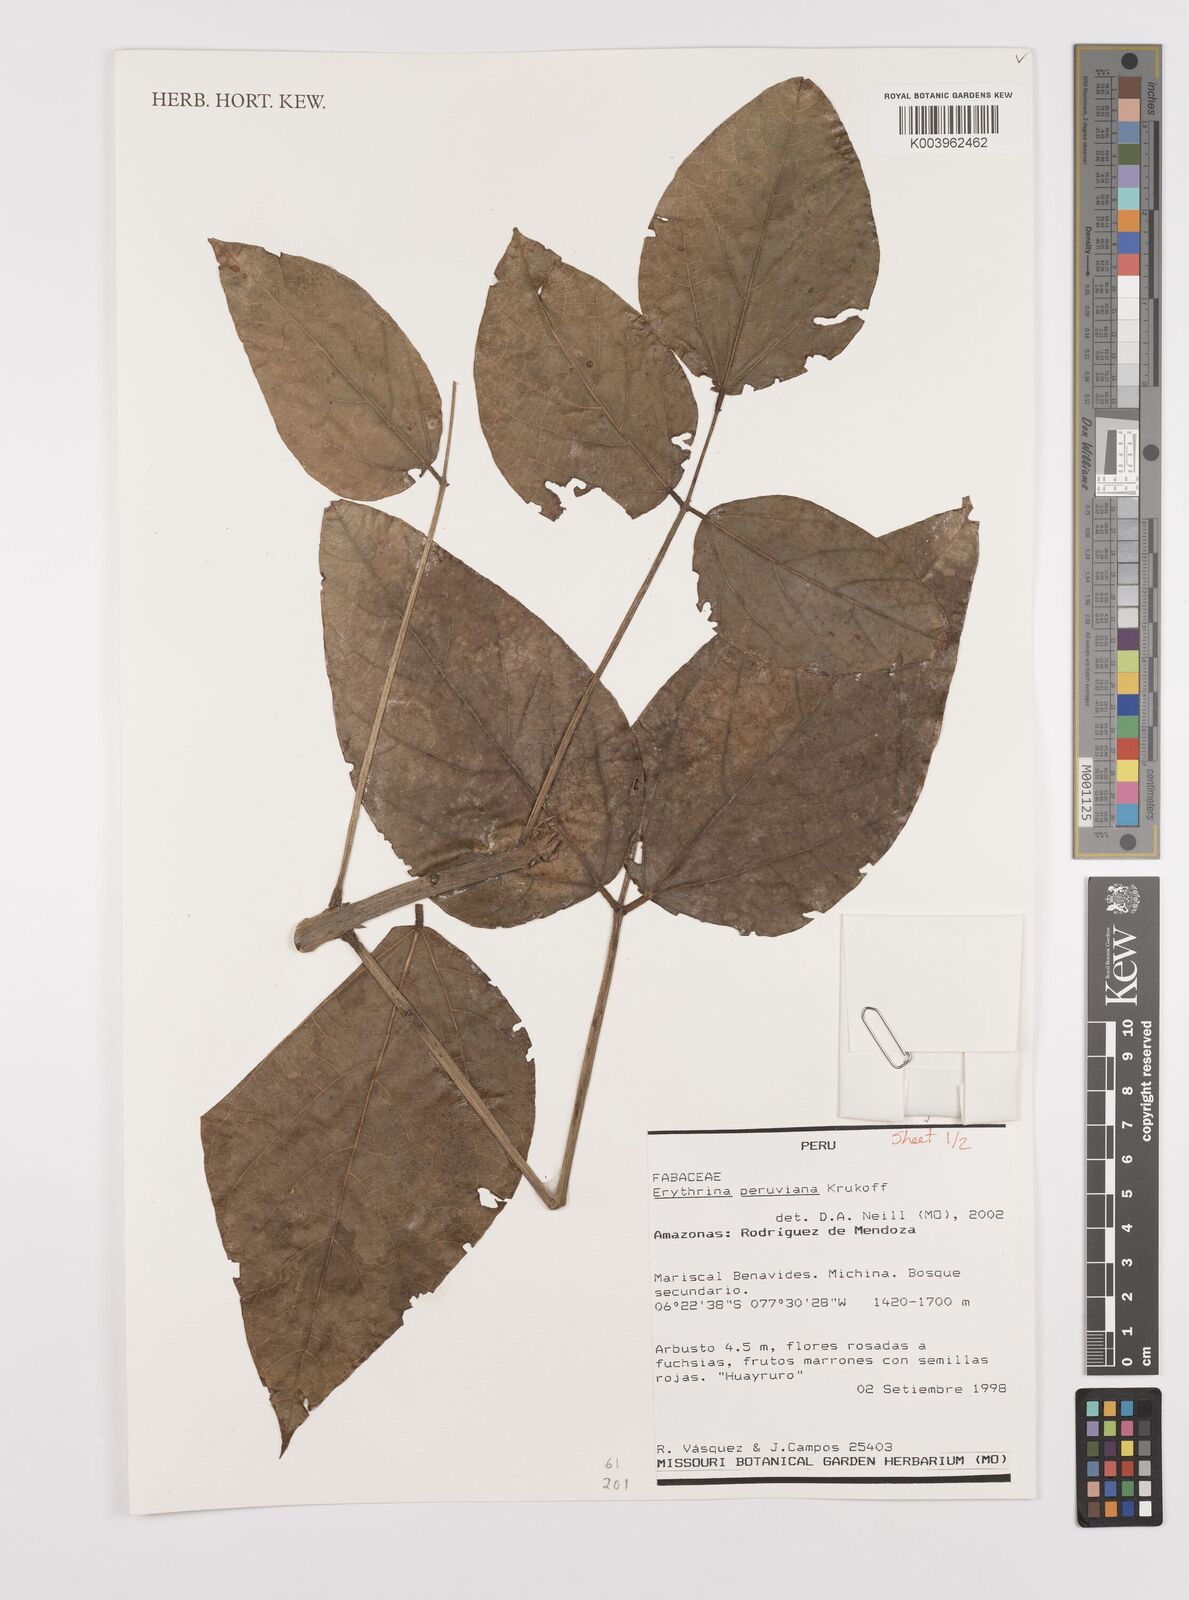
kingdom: Plantae
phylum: Tracheophyta
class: Magnoliopsida
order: Fabales
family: Fabaceae
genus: Erythrina
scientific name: Erythrina peruviana
